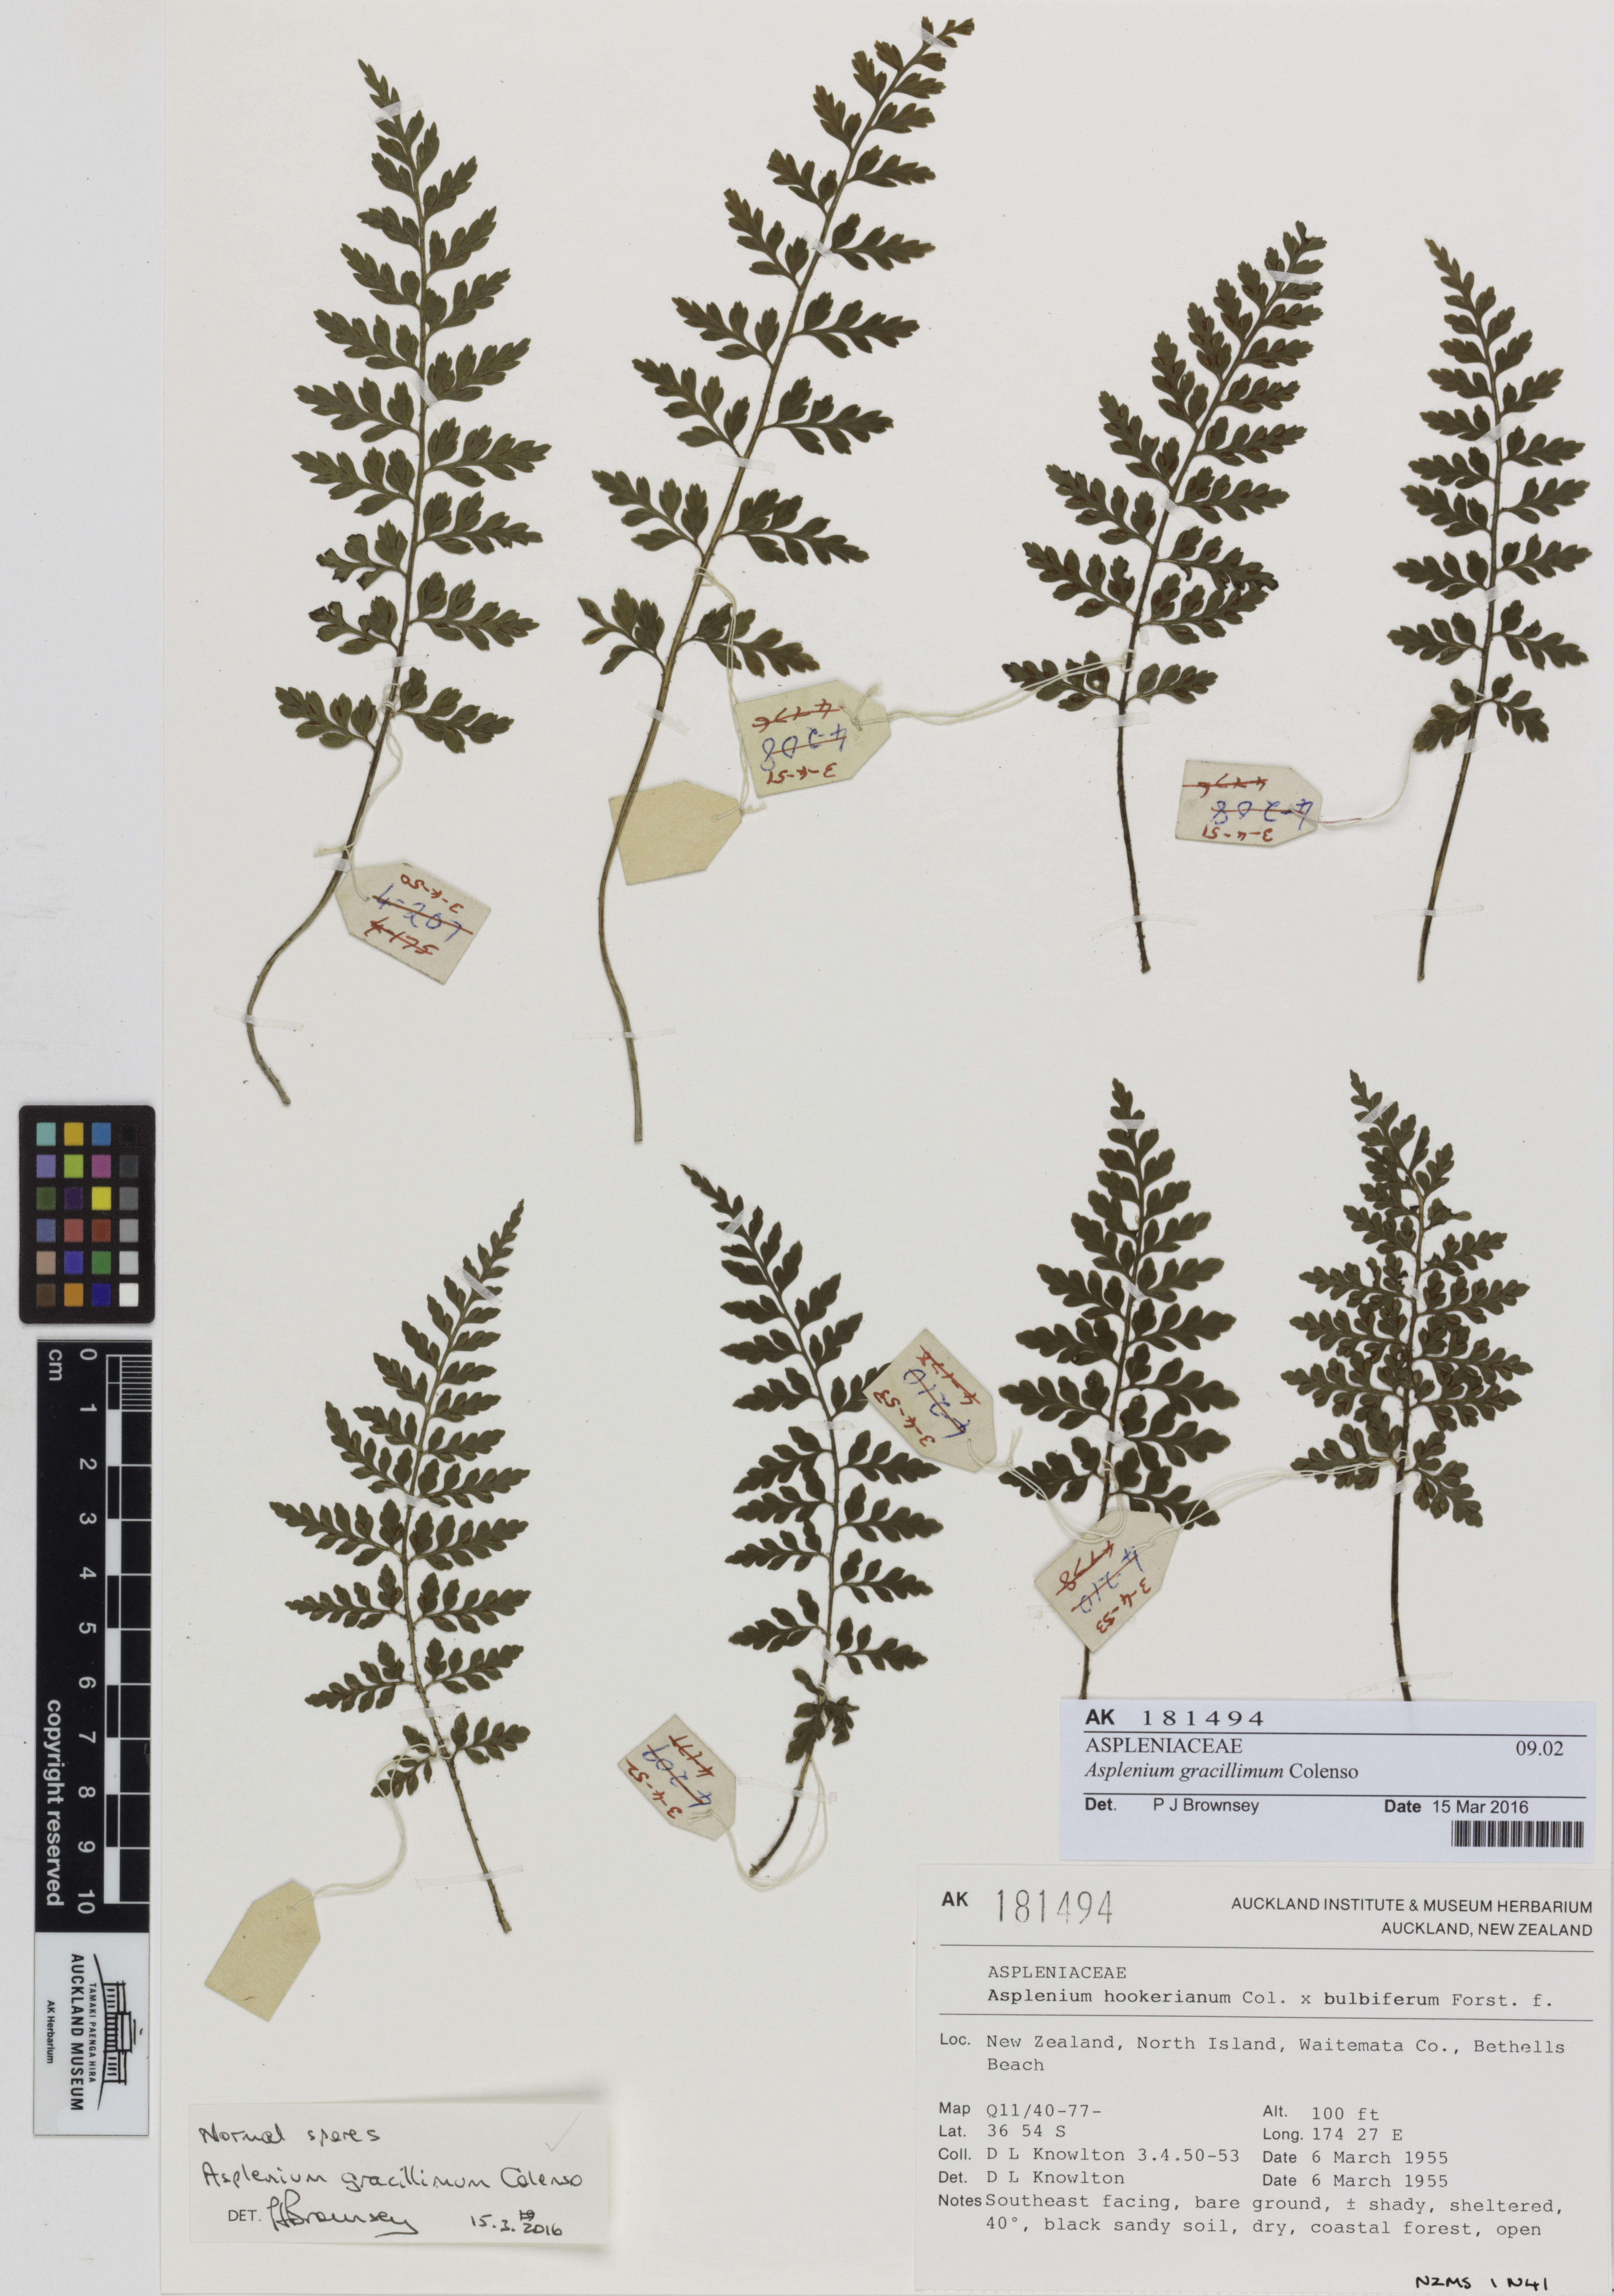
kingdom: Plantae
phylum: Tracheophyta
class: Polypodiopsida
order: Polypodiales
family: Aspleniaceae
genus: Asplenium
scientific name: Asplenium bulbiferum
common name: Mother fern
